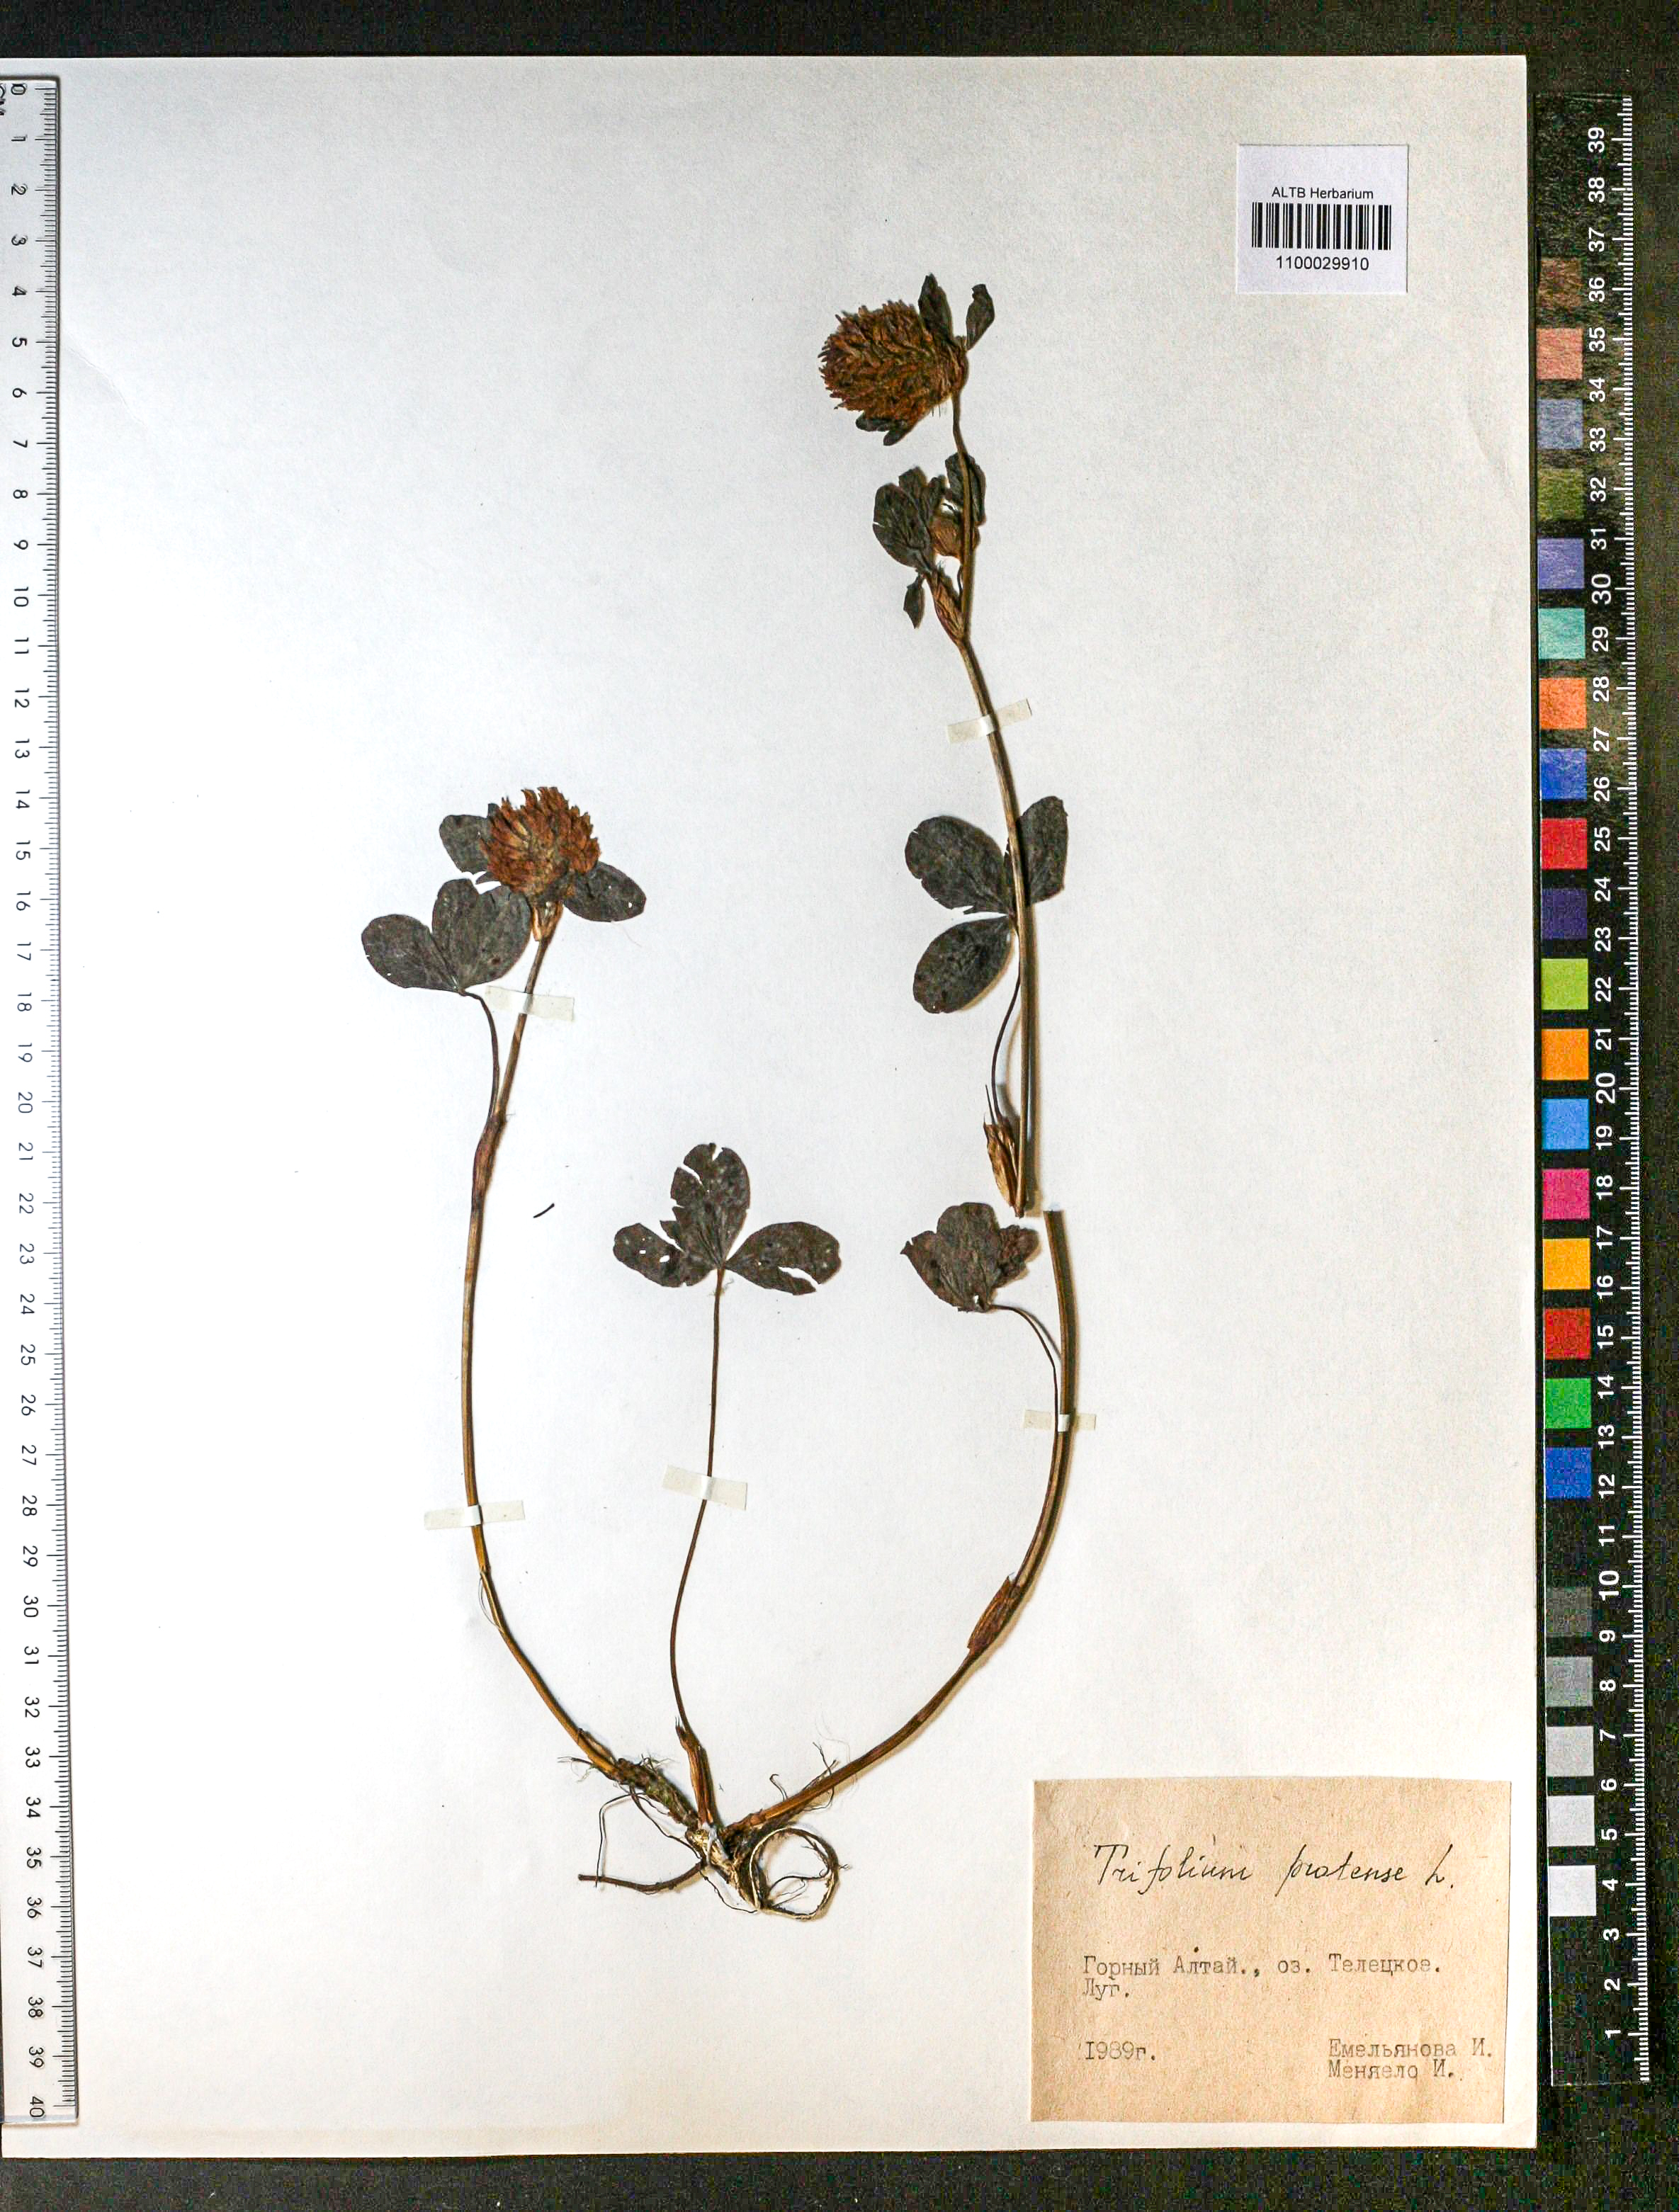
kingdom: Plantae
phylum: Tracheophyta
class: Magnoliopsida
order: Fabales
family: Fabaceae
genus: Trifolium
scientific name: Trifolium pratense
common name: Red clover
